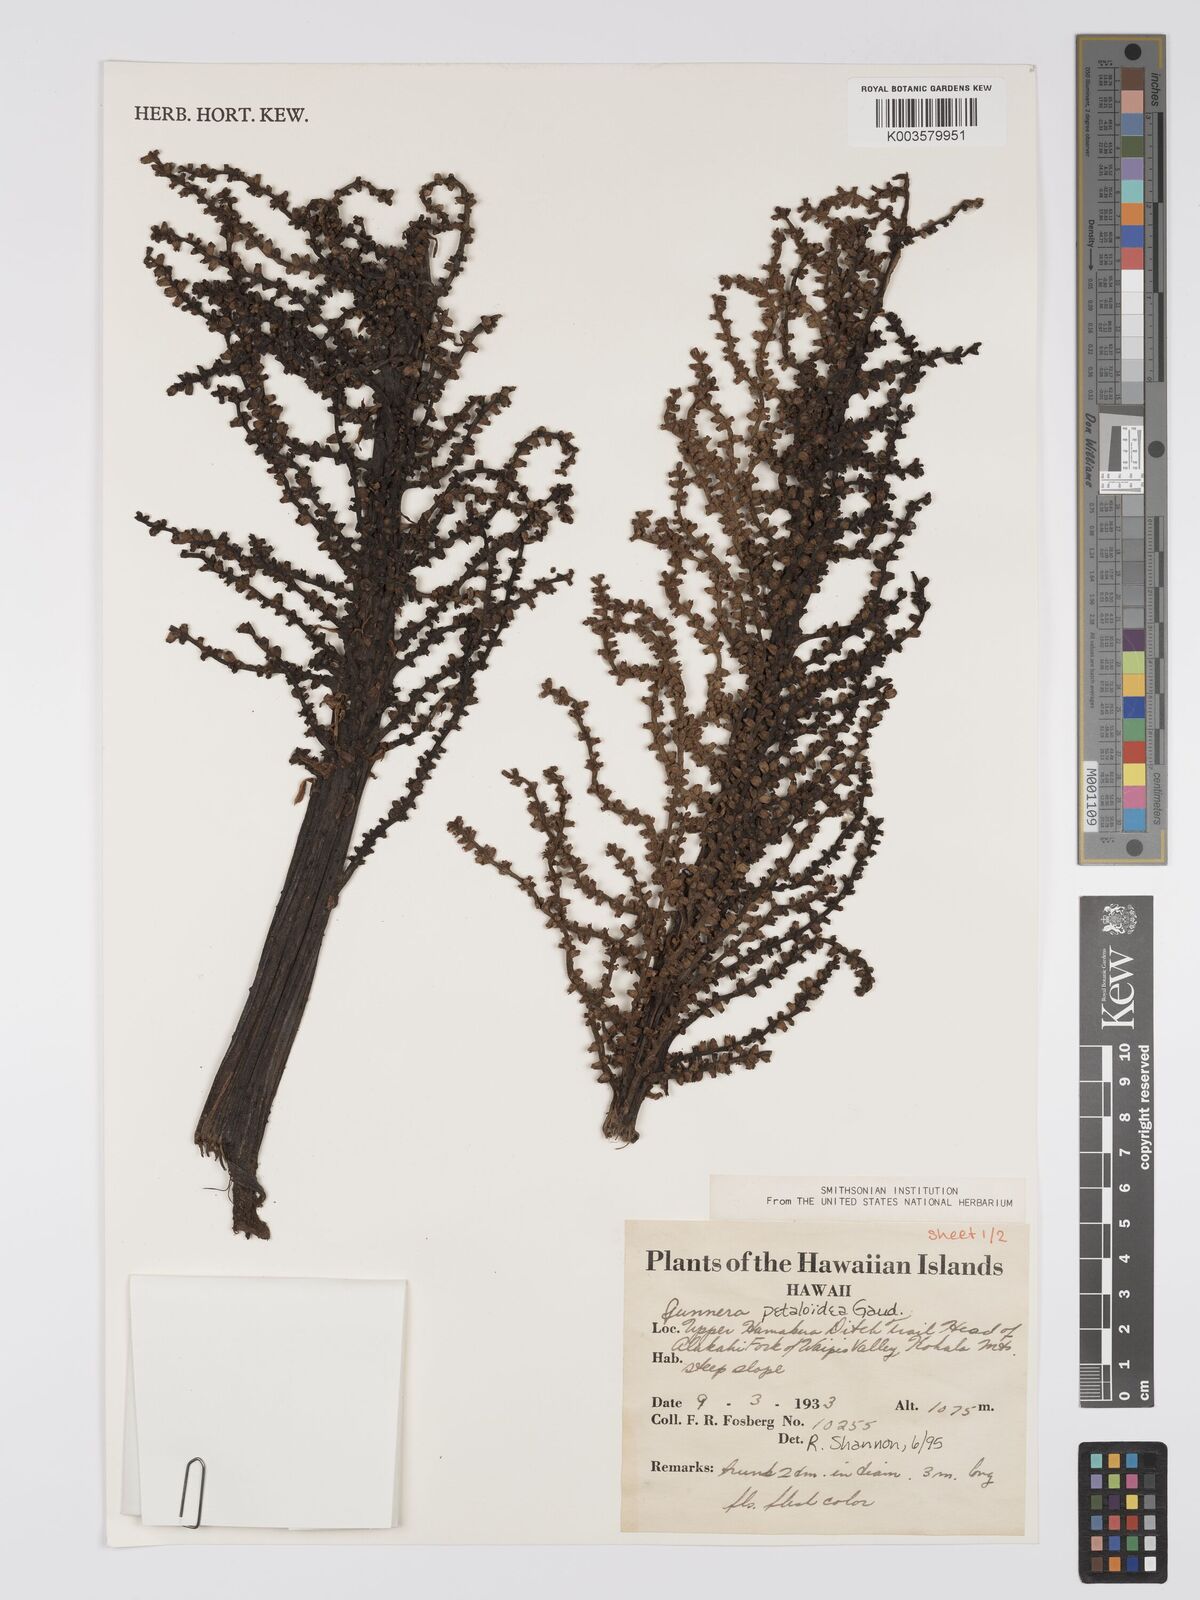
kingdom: Plantae
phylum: Tracheophyta
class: Magnoliopsida
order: Gunnerales
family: Gunneraceae
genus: Gunnera
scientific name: Gunnera petaloidea
